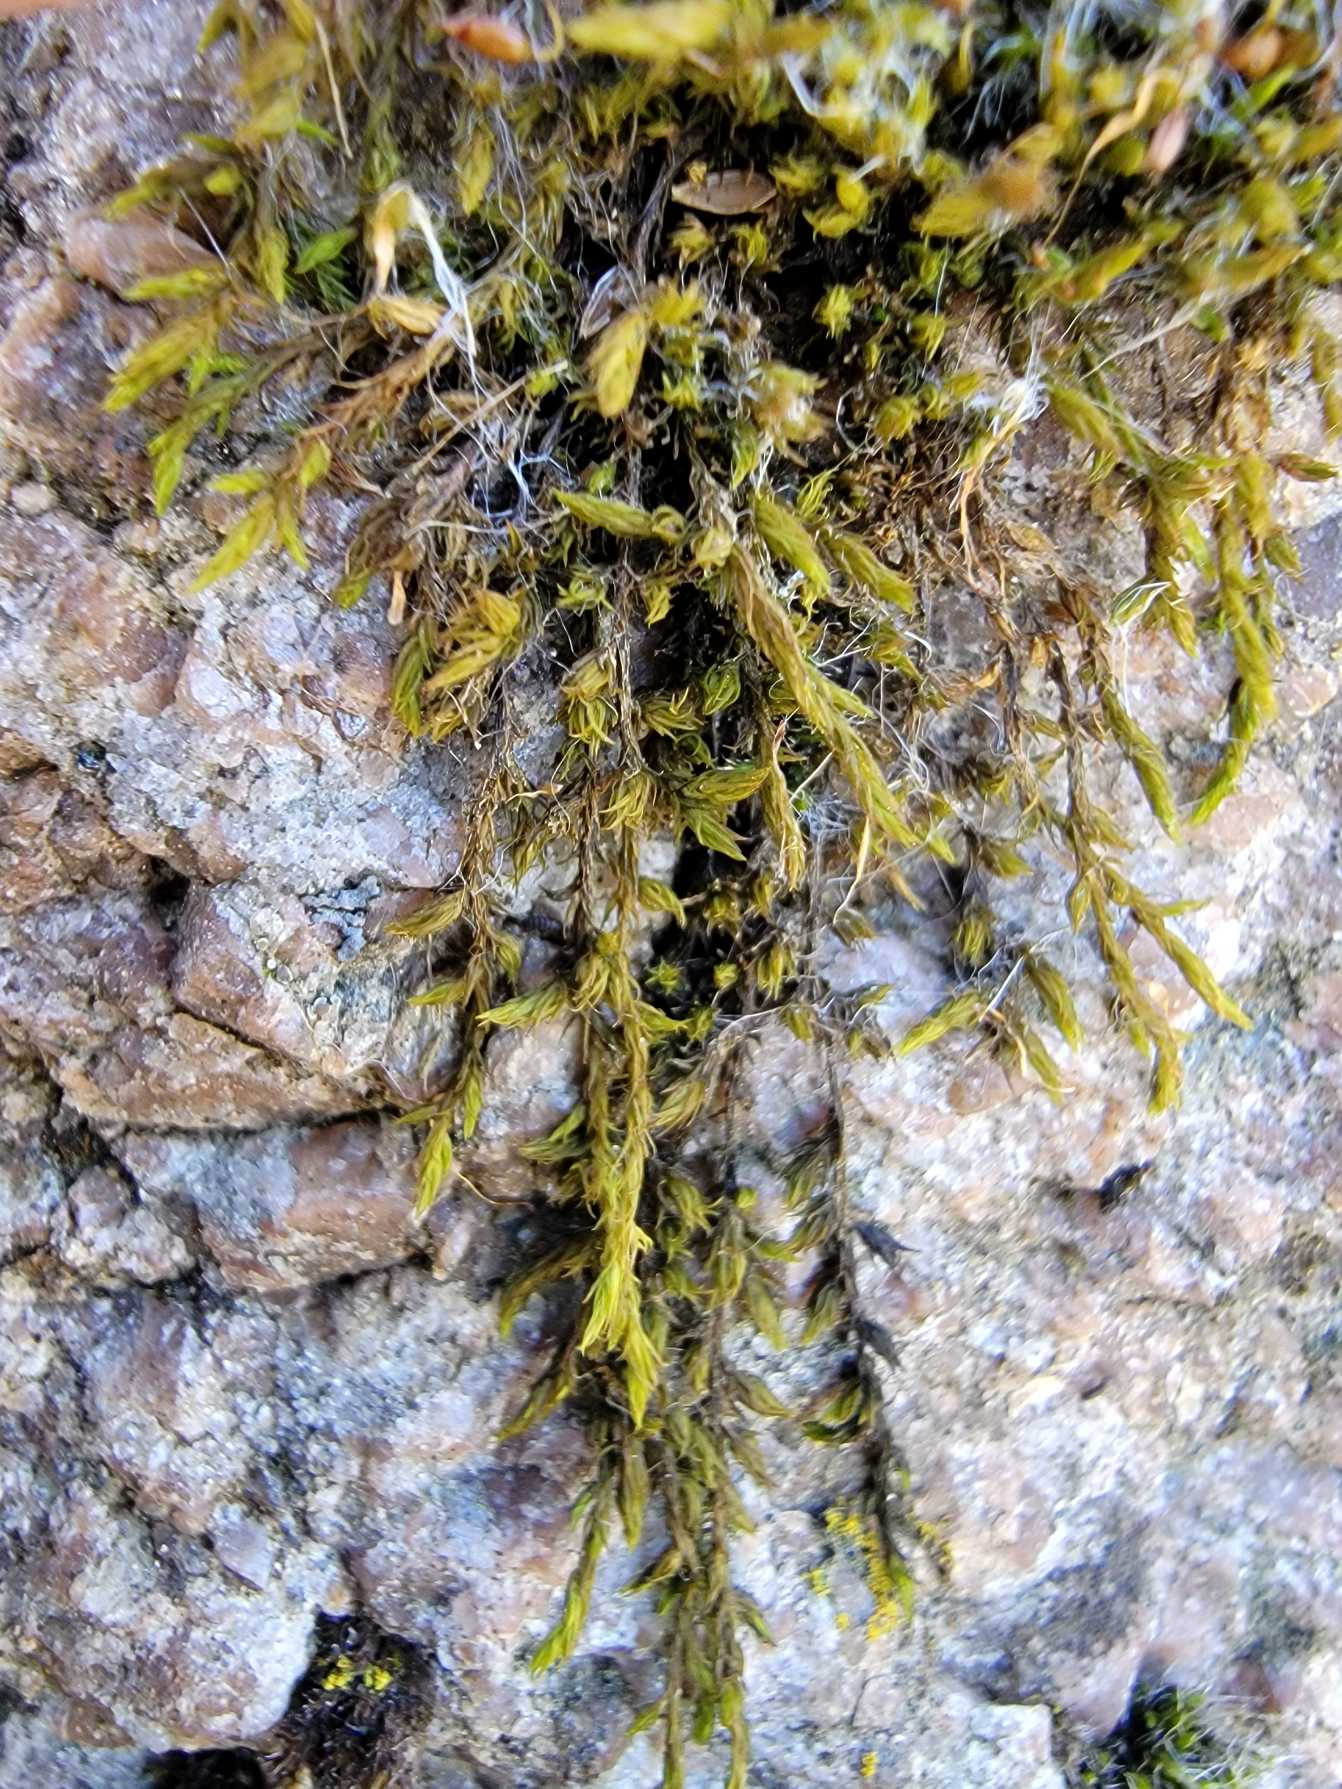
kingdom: Plantae
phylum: Bryophyta
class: Bryopsida
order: Grimmiales
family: Grimmiaceae
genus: Dilutineuron
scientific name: Dilutineuron fasciculare
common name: Knippe-børstemos
